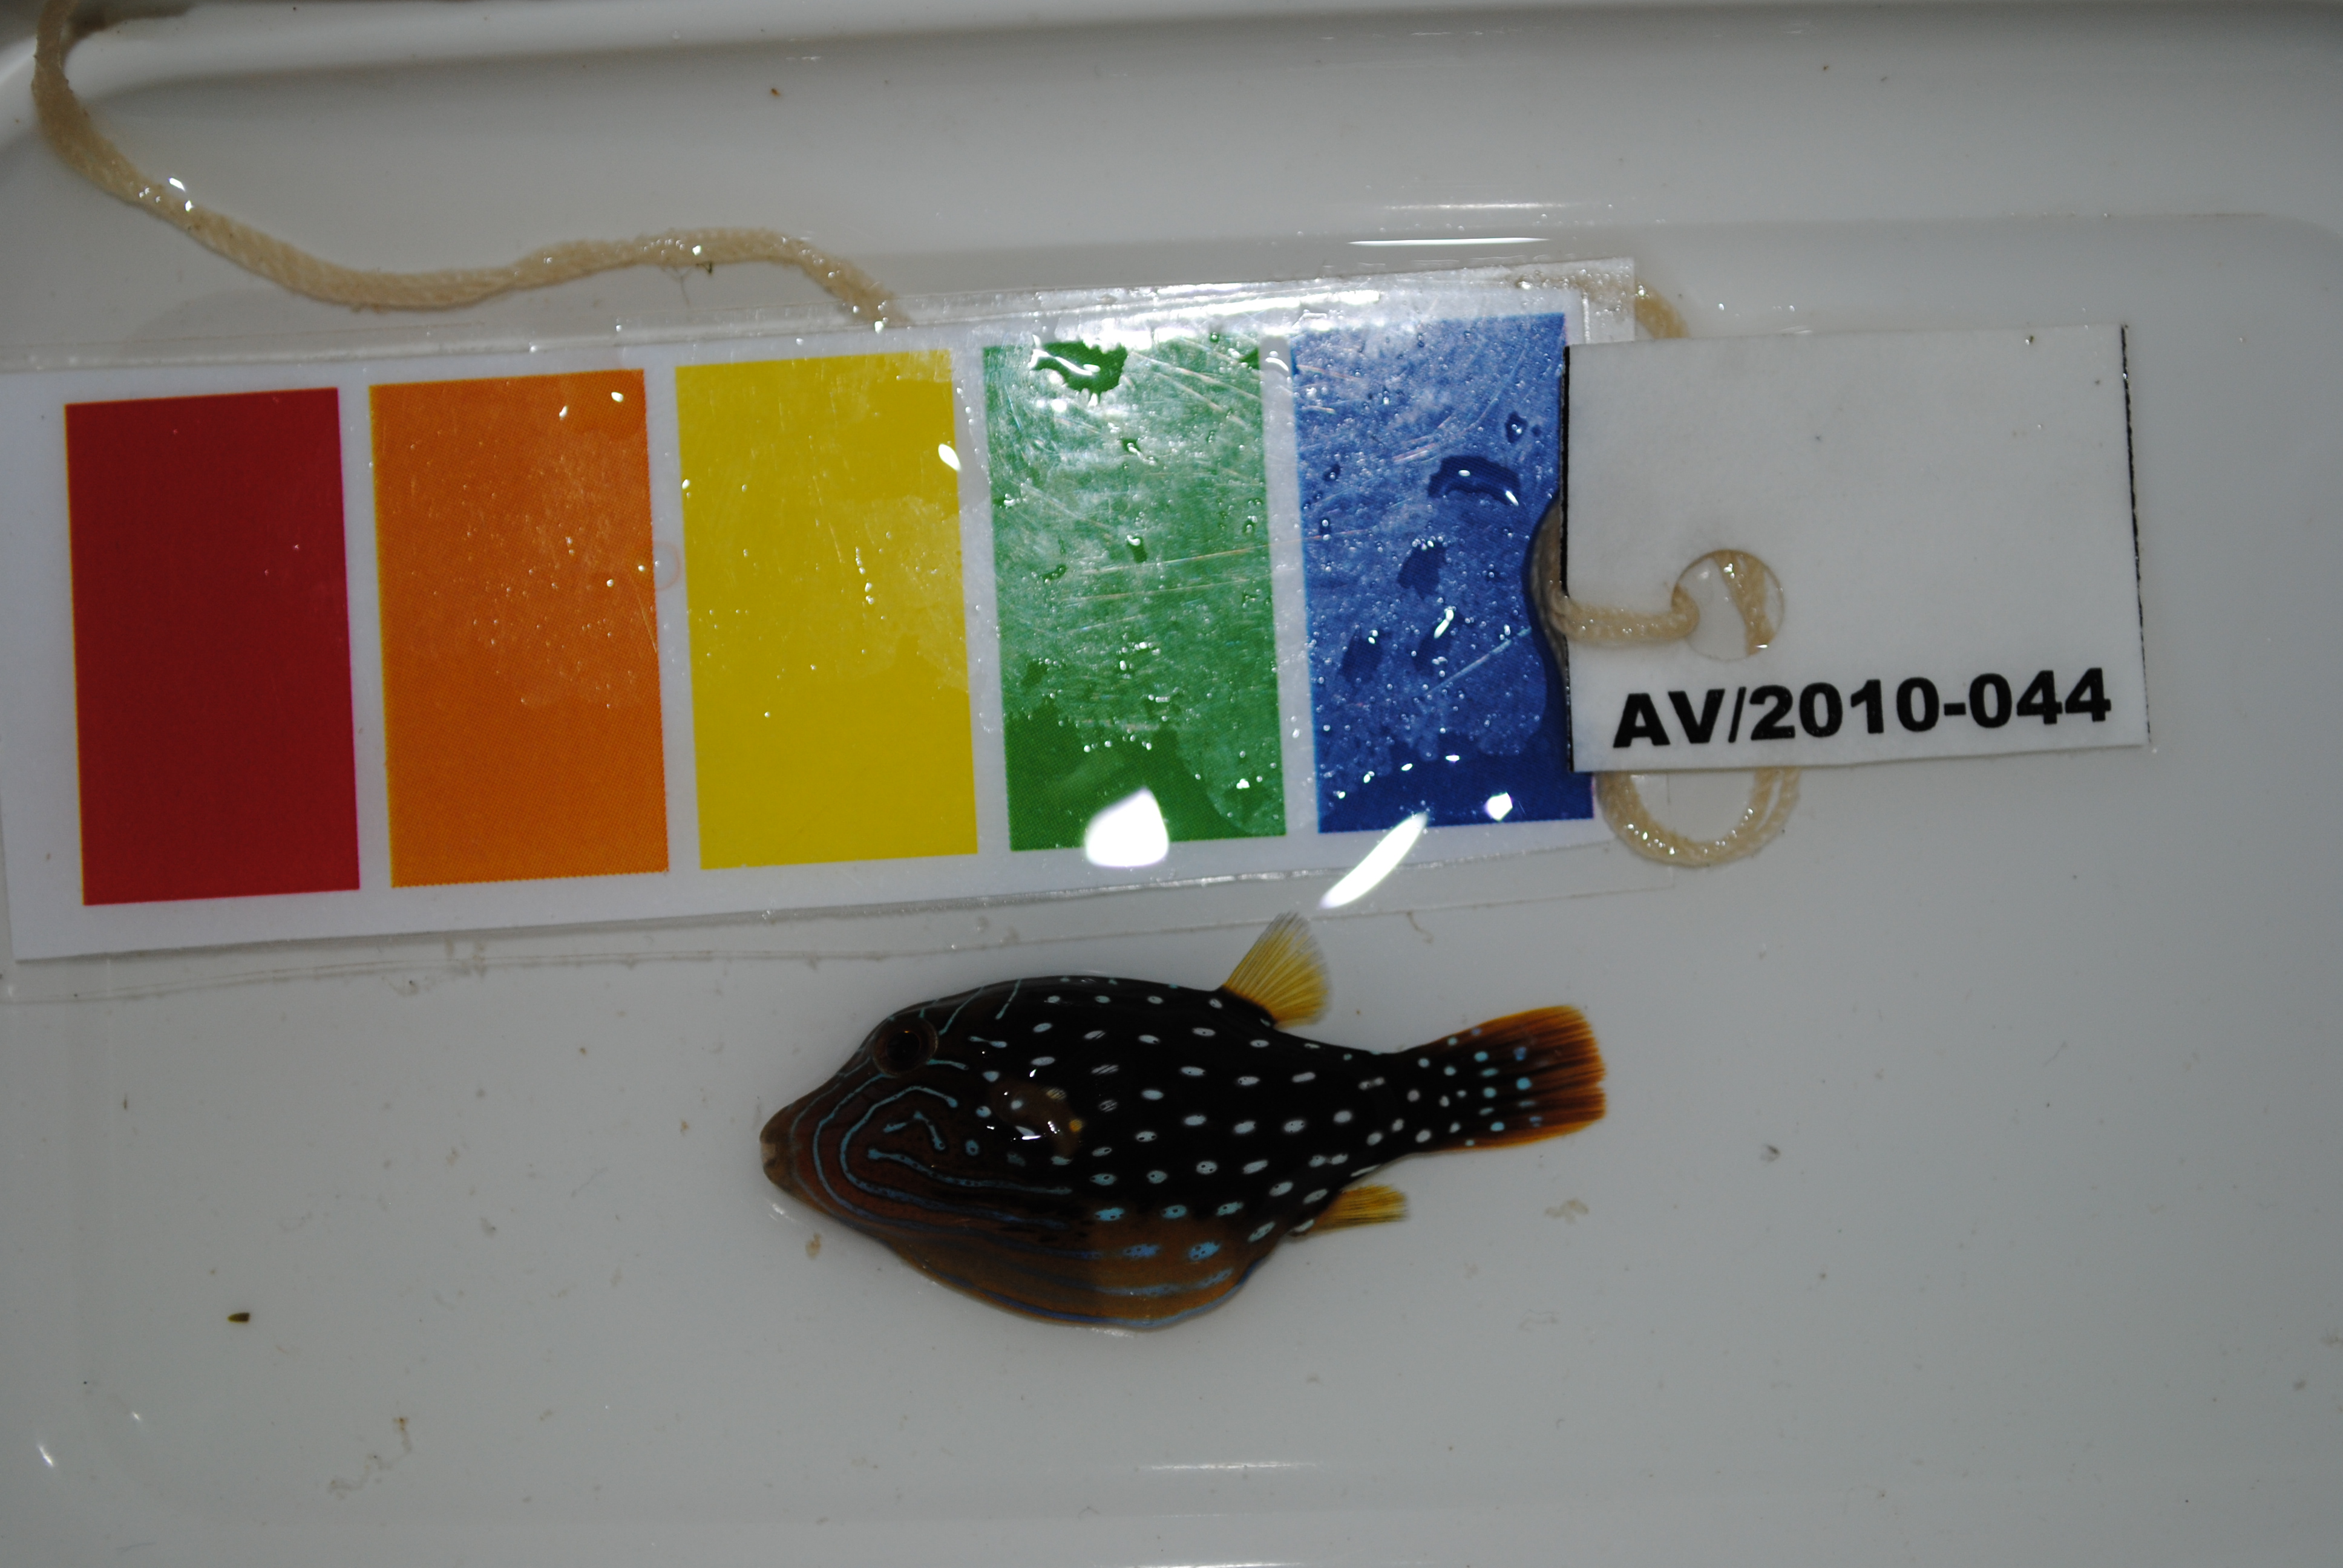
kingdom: Animalia
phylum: Chordata
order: Tetraodontiformes
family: Tetraodontidae
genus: Canthigaster
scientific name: Canthigaster amboinensis
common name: Ambon pufferfish
